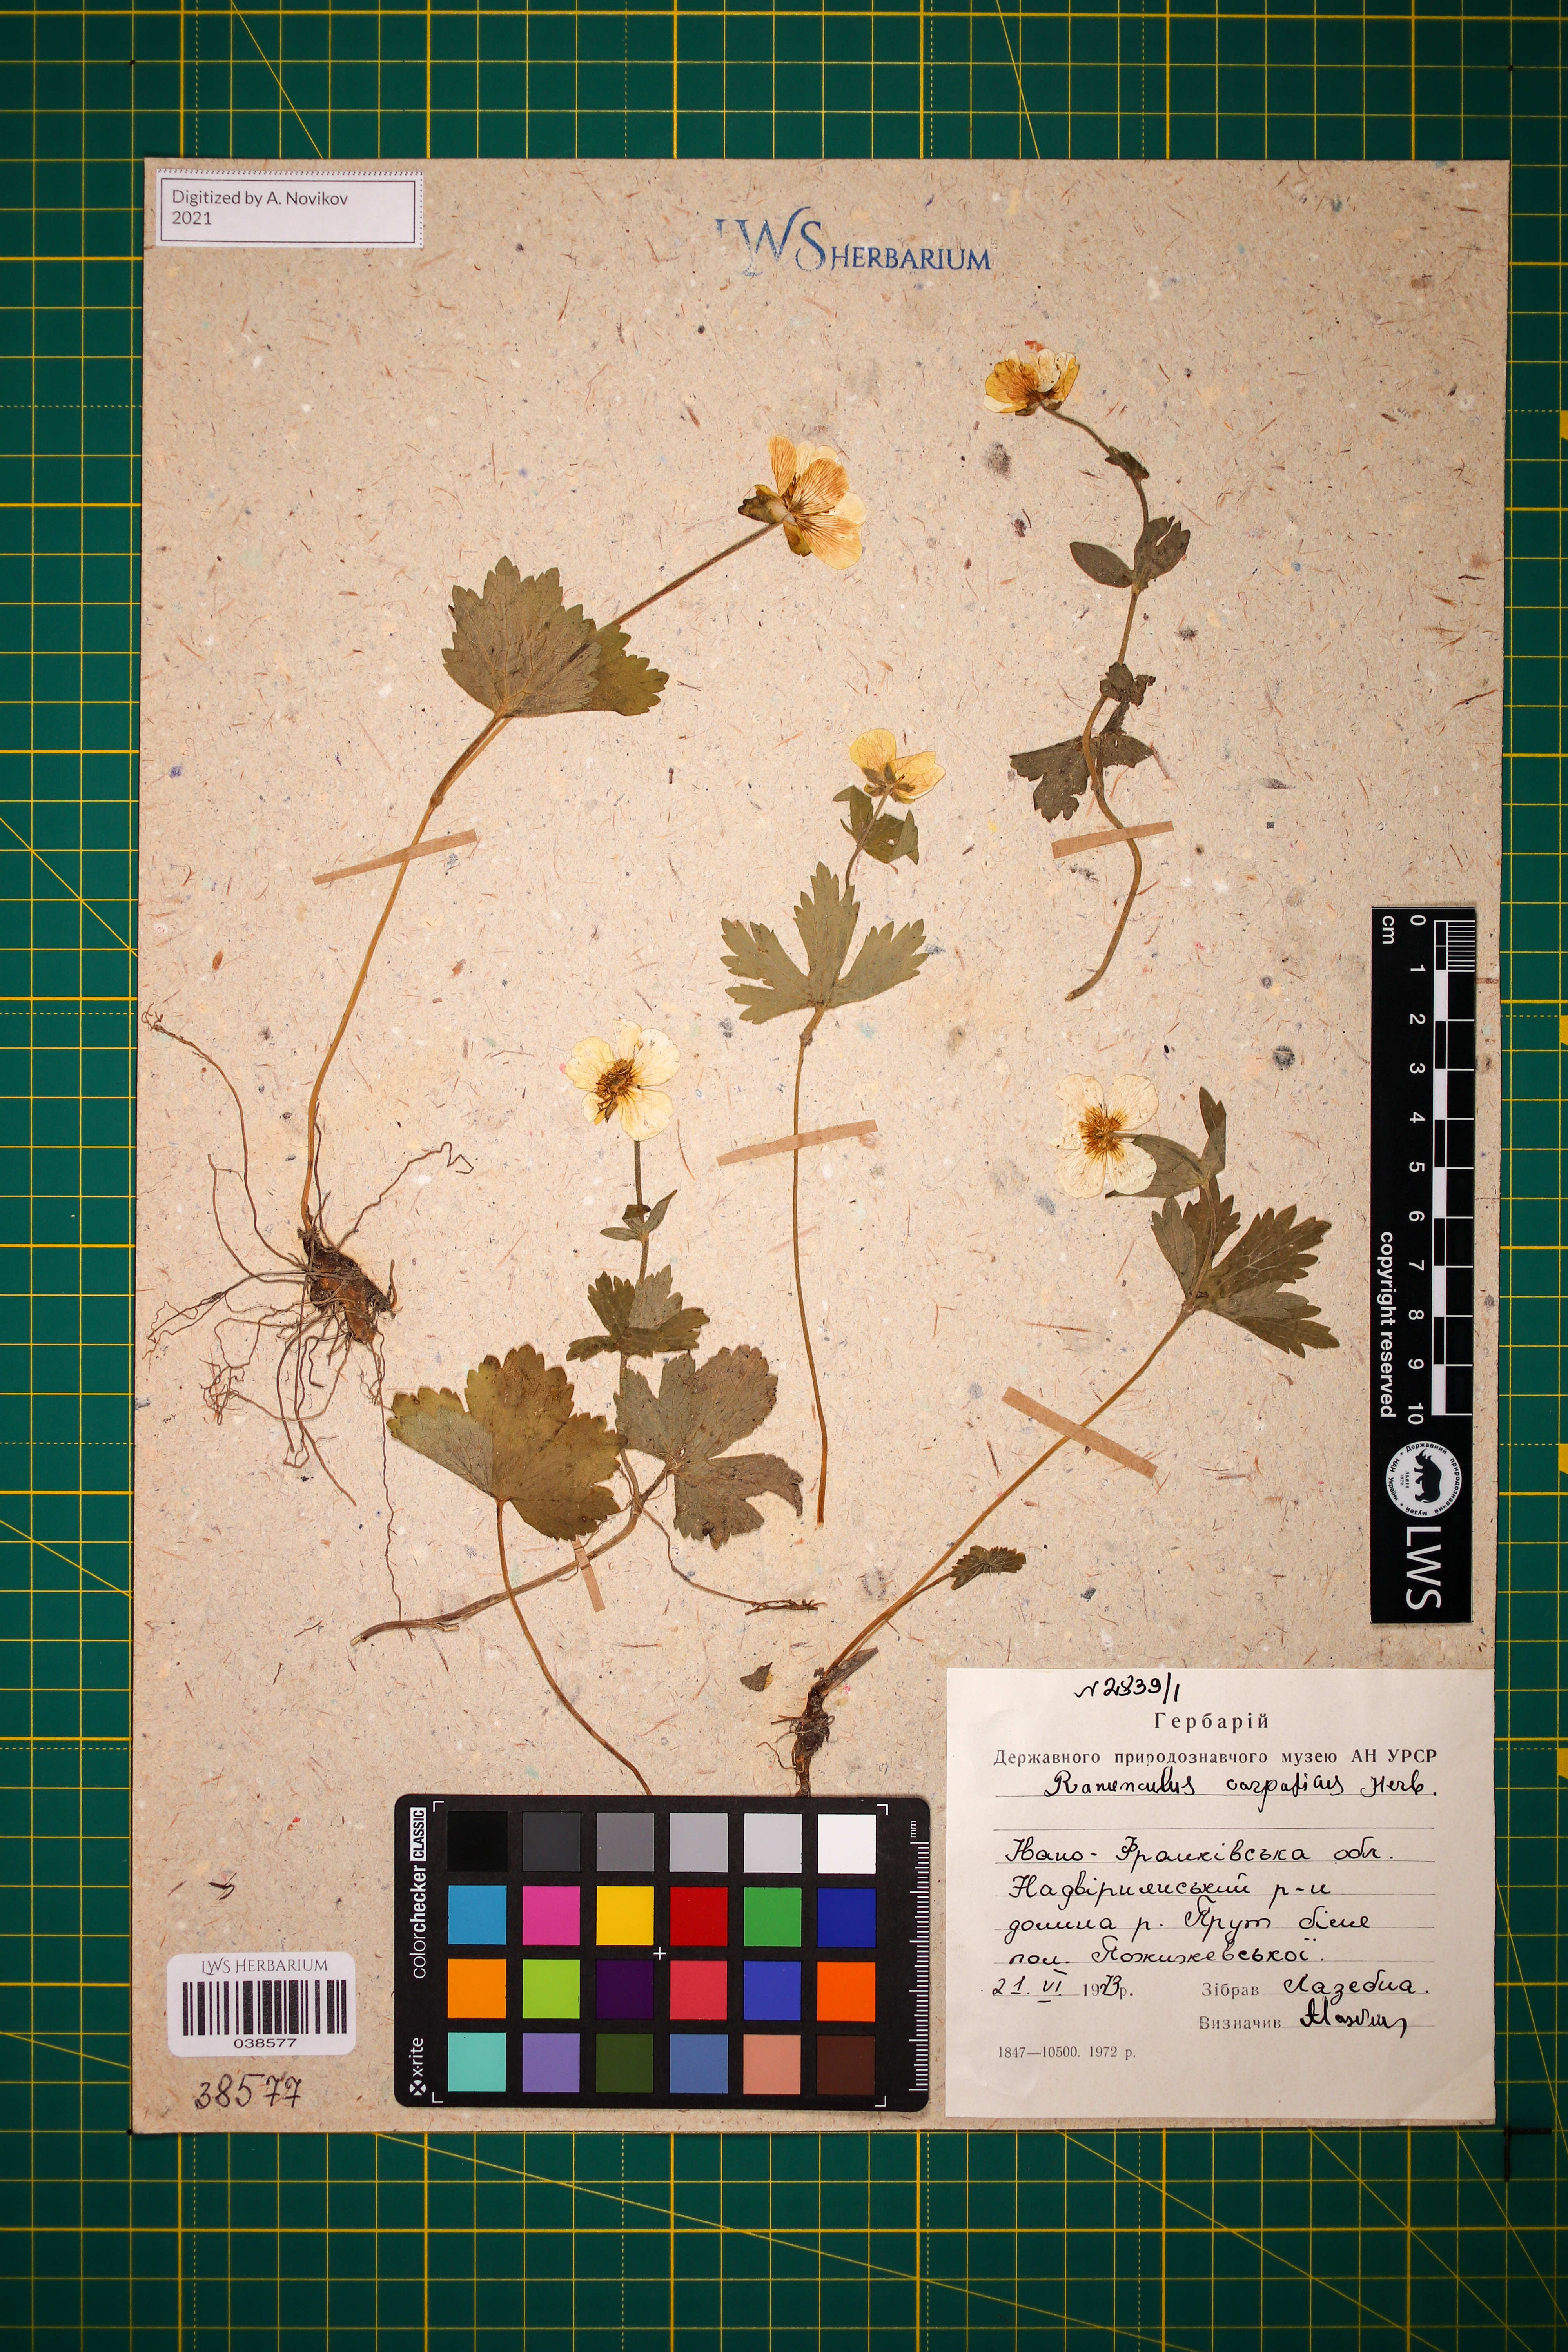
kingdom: Plantae
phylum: Tracheophyta
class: Magnoliopsida
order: Ranunculales
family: Ranunculaceae
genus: Ranunculus
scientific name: Ranunculus carpaticus
